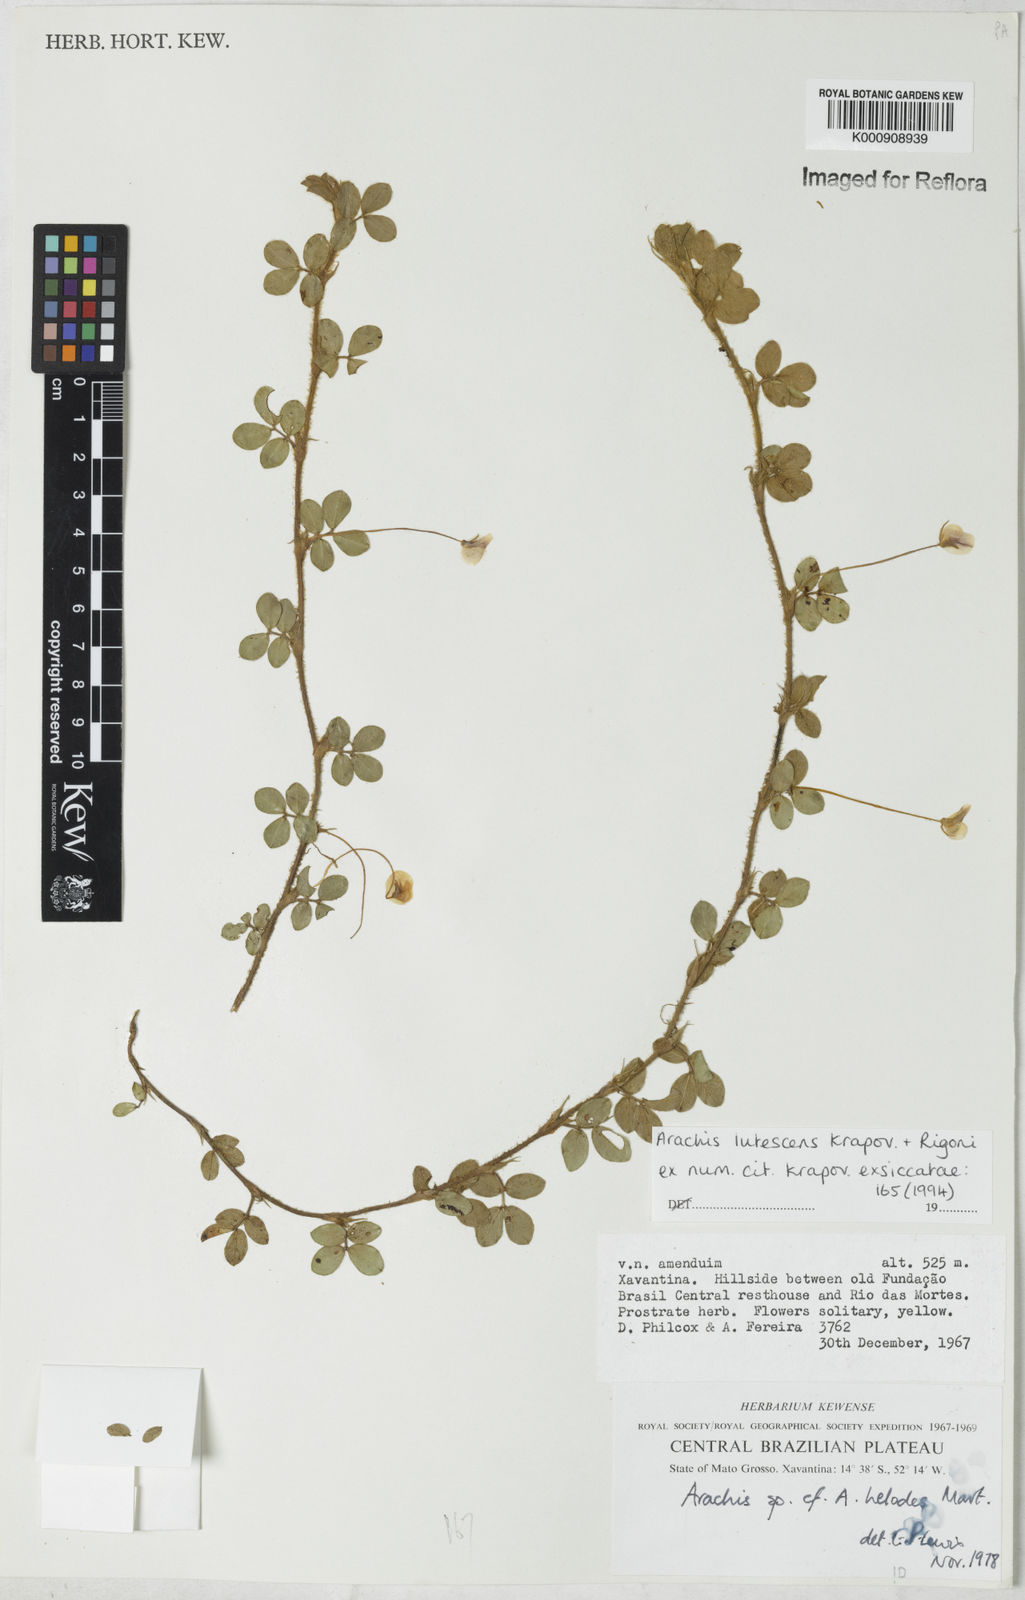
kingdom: Plantae
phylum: Tracheophyta
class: Magnoliopsida
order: Fabales
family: Fabaceae
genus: Arachis
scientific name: Arachis lutescens
